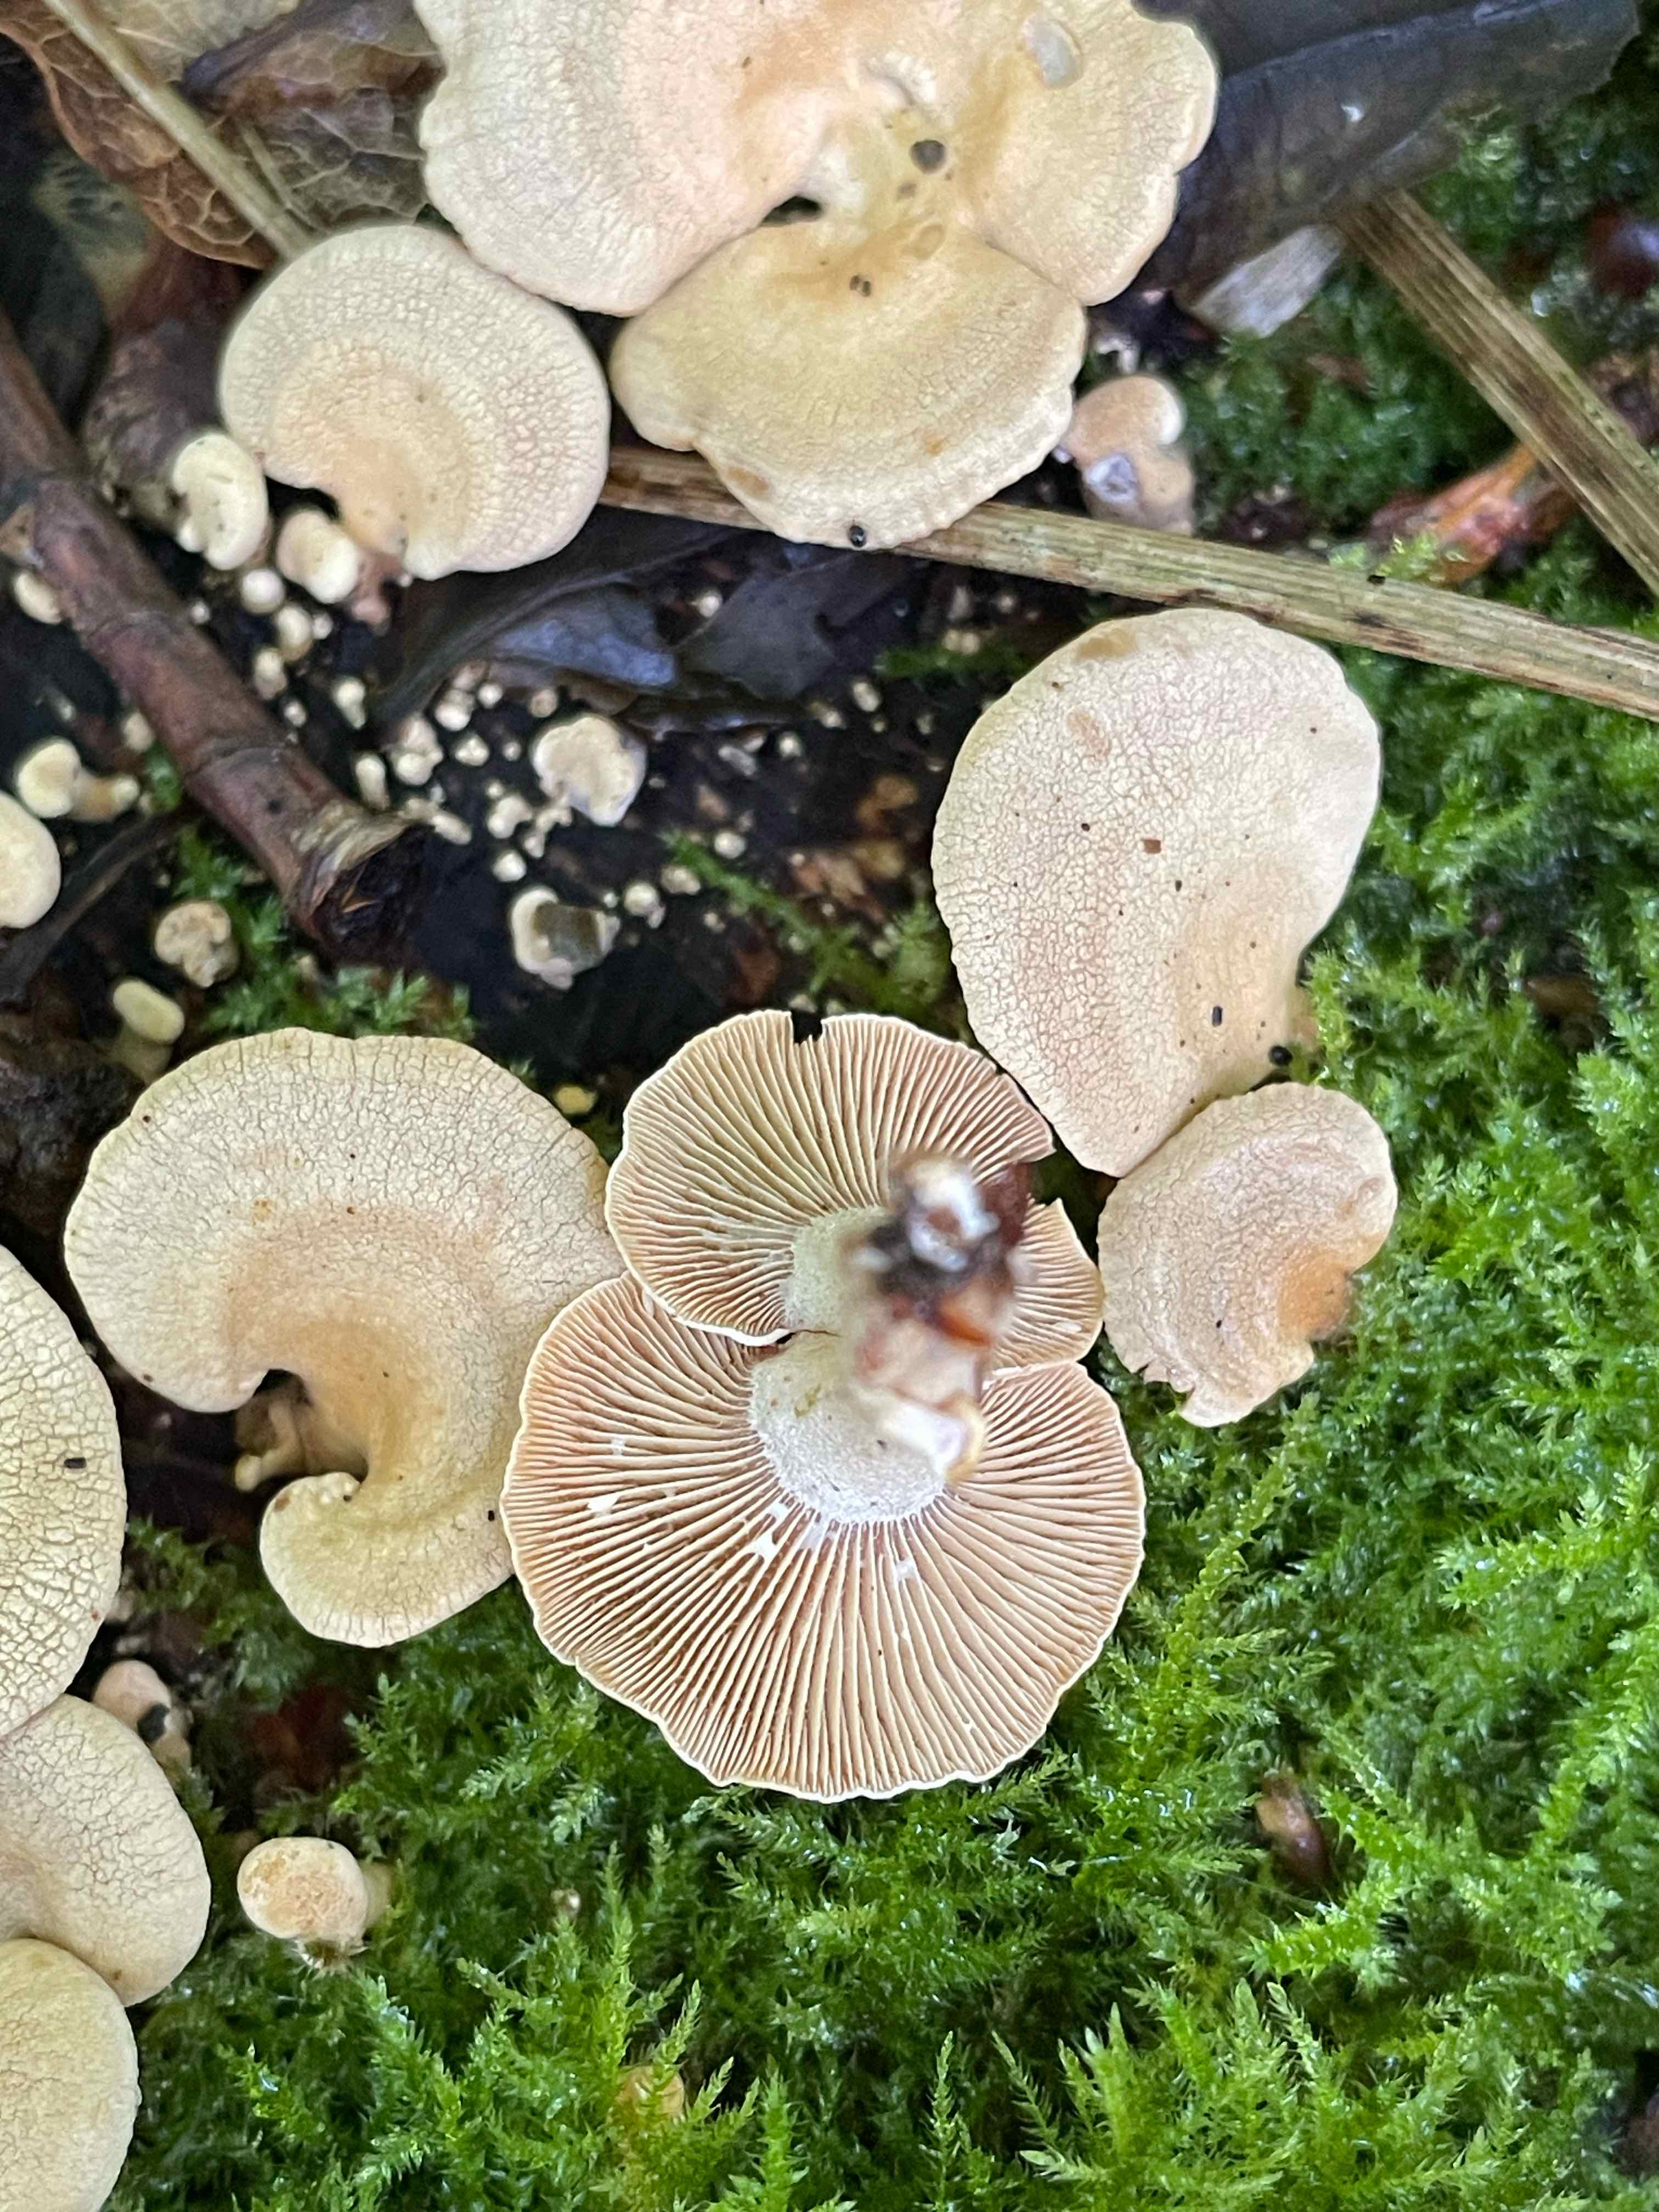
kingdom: Fungi
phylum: Basidiomycota
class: Agaricomycetes
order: Agaricales
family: Mycenaceae
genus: Panellus
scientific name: Panellus stipticus
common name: kliddet epaulethat
